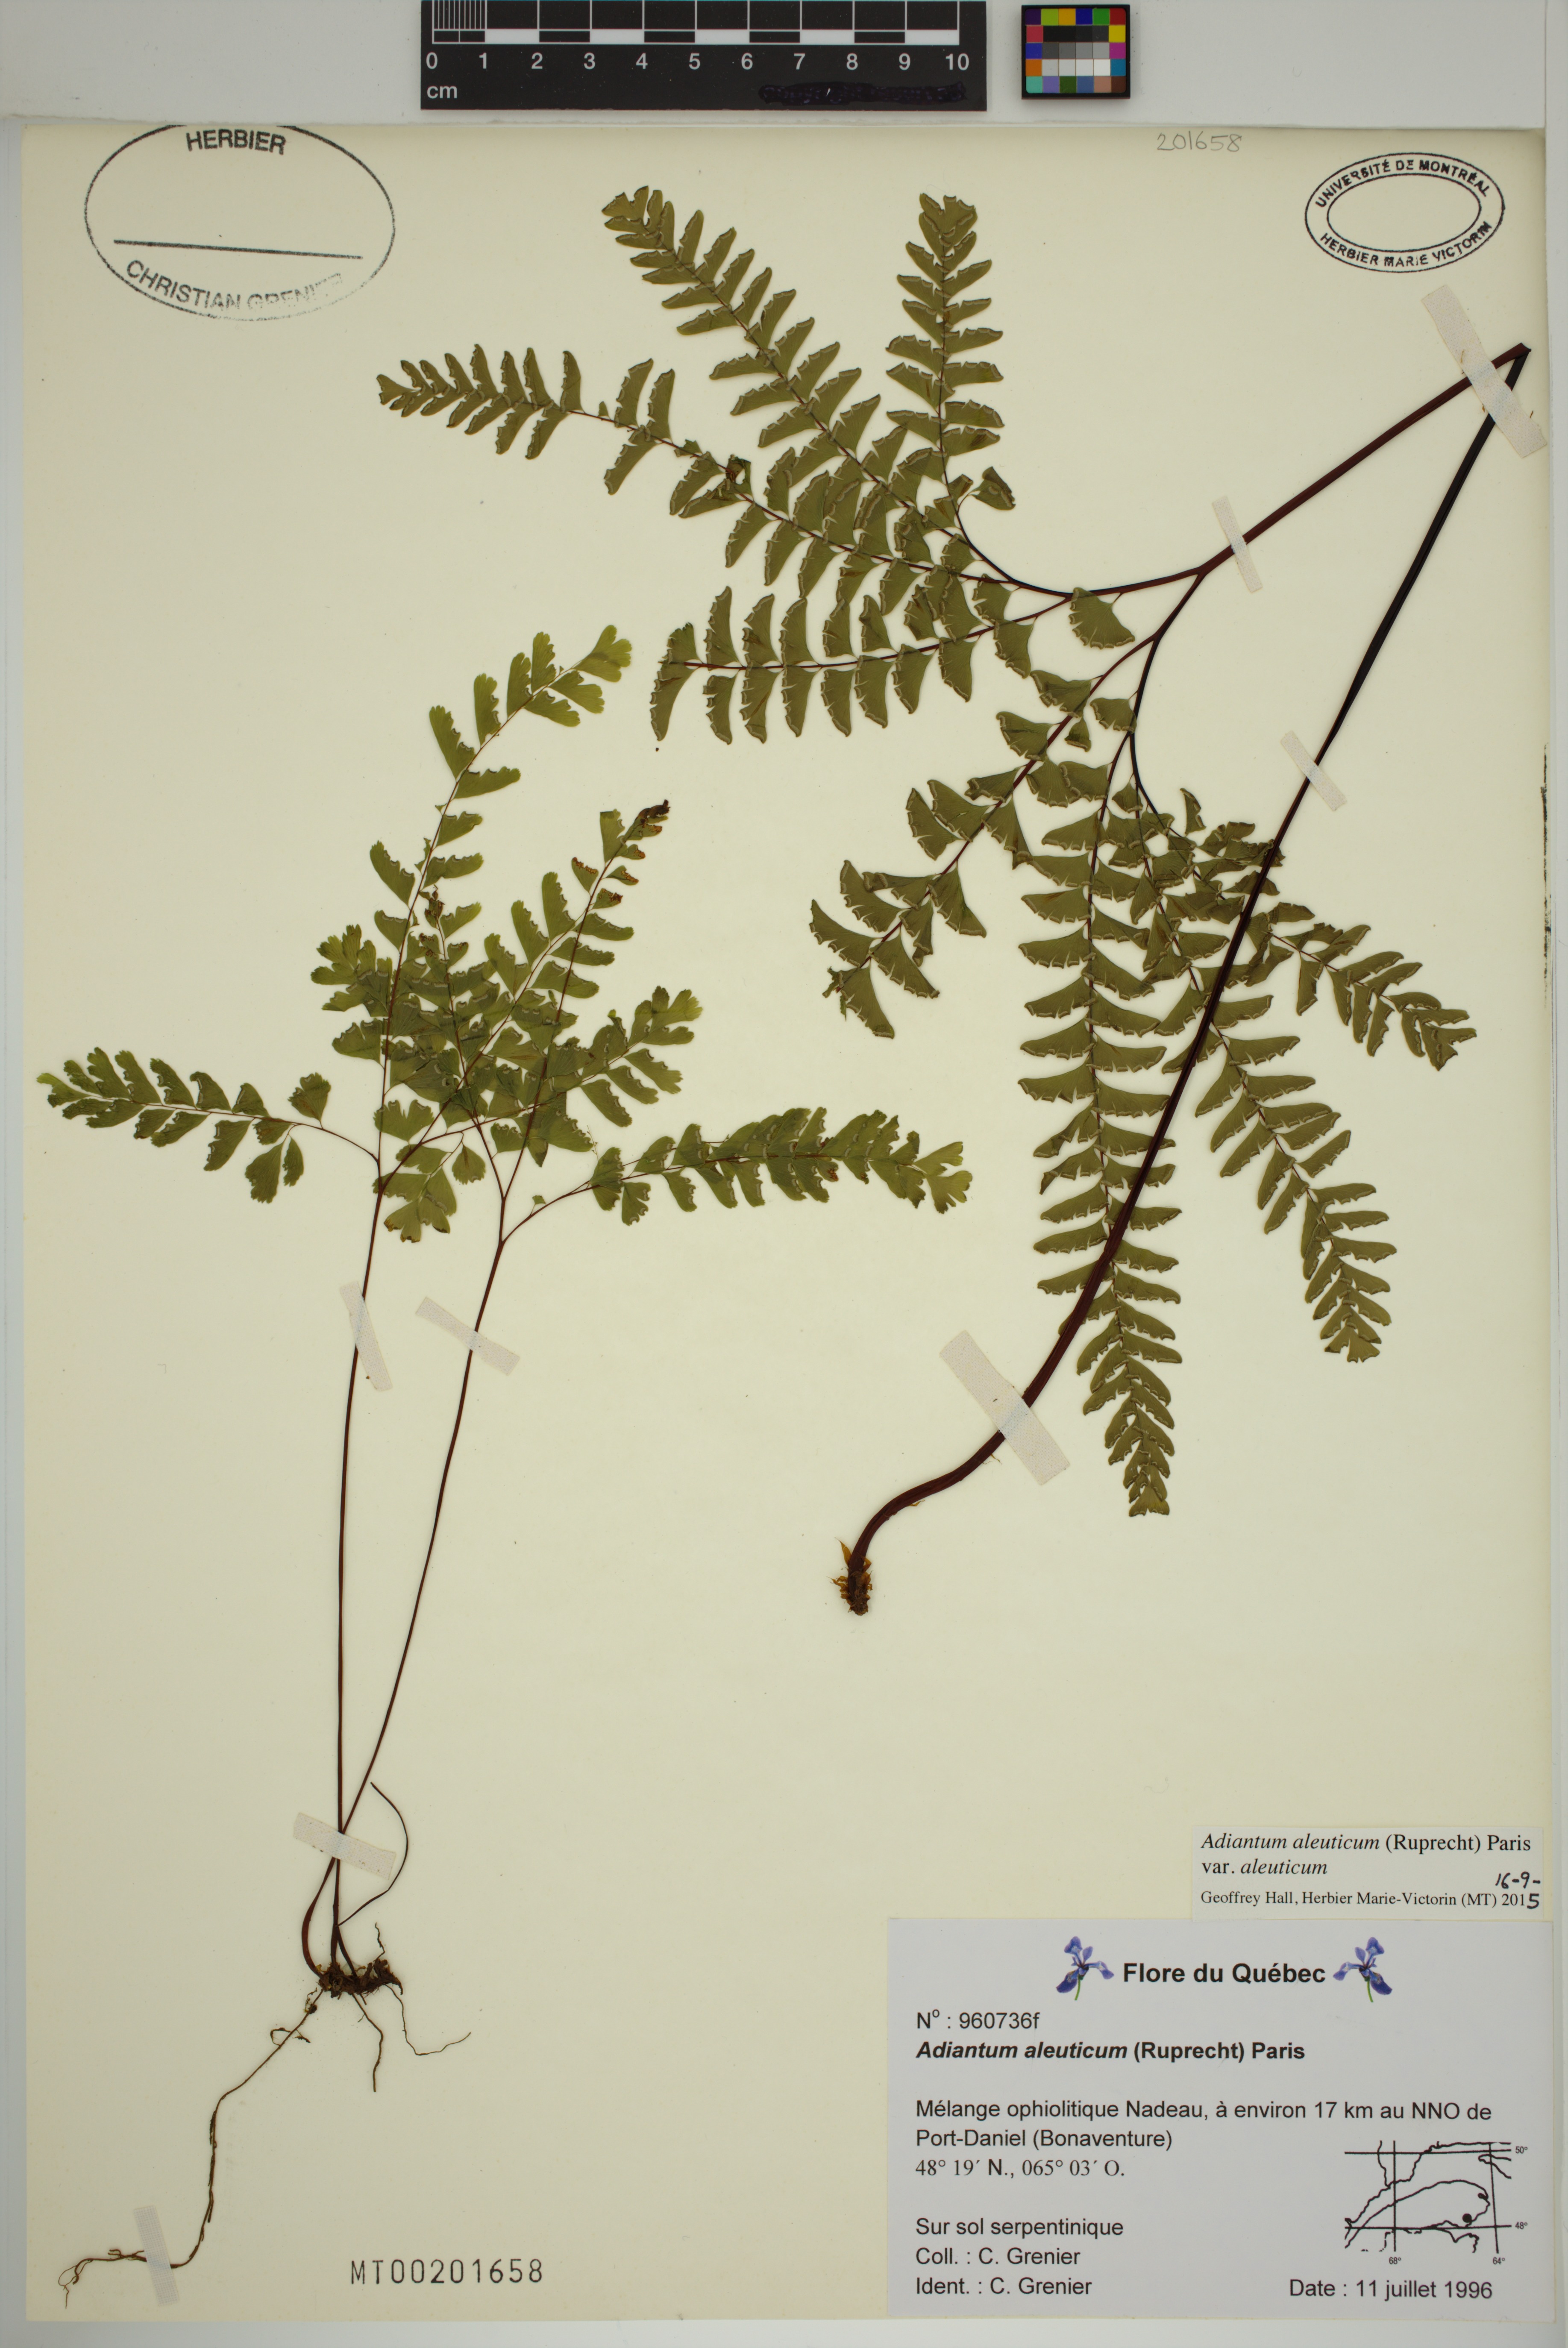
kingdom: Plantae
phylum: Tracheophyta
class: Polypodiopsida
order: Polypodiales
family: Pteridaceae
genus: Adiantum
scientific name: Adiantum aleuticum
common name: Aleutian maidenhair fern
